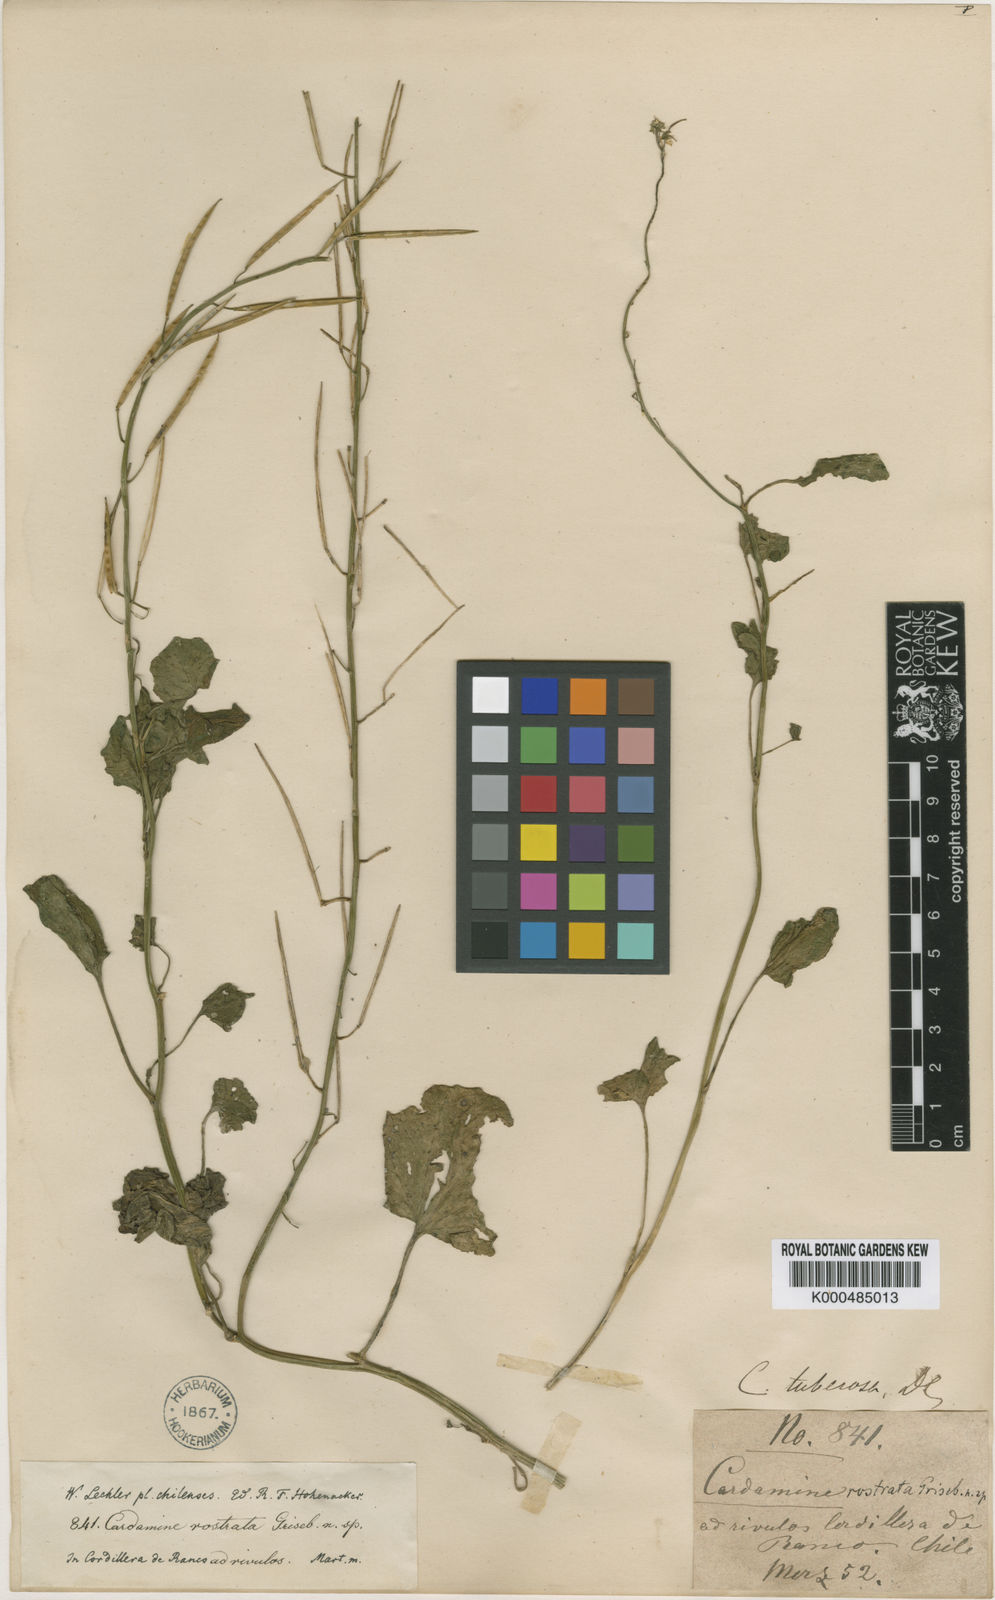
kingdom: Plantae
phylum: Tracheophyta
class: Magnoliopsida
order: Brassicales
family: Brassicaceae
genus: Cardamine
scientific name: Cardamine rostrata
